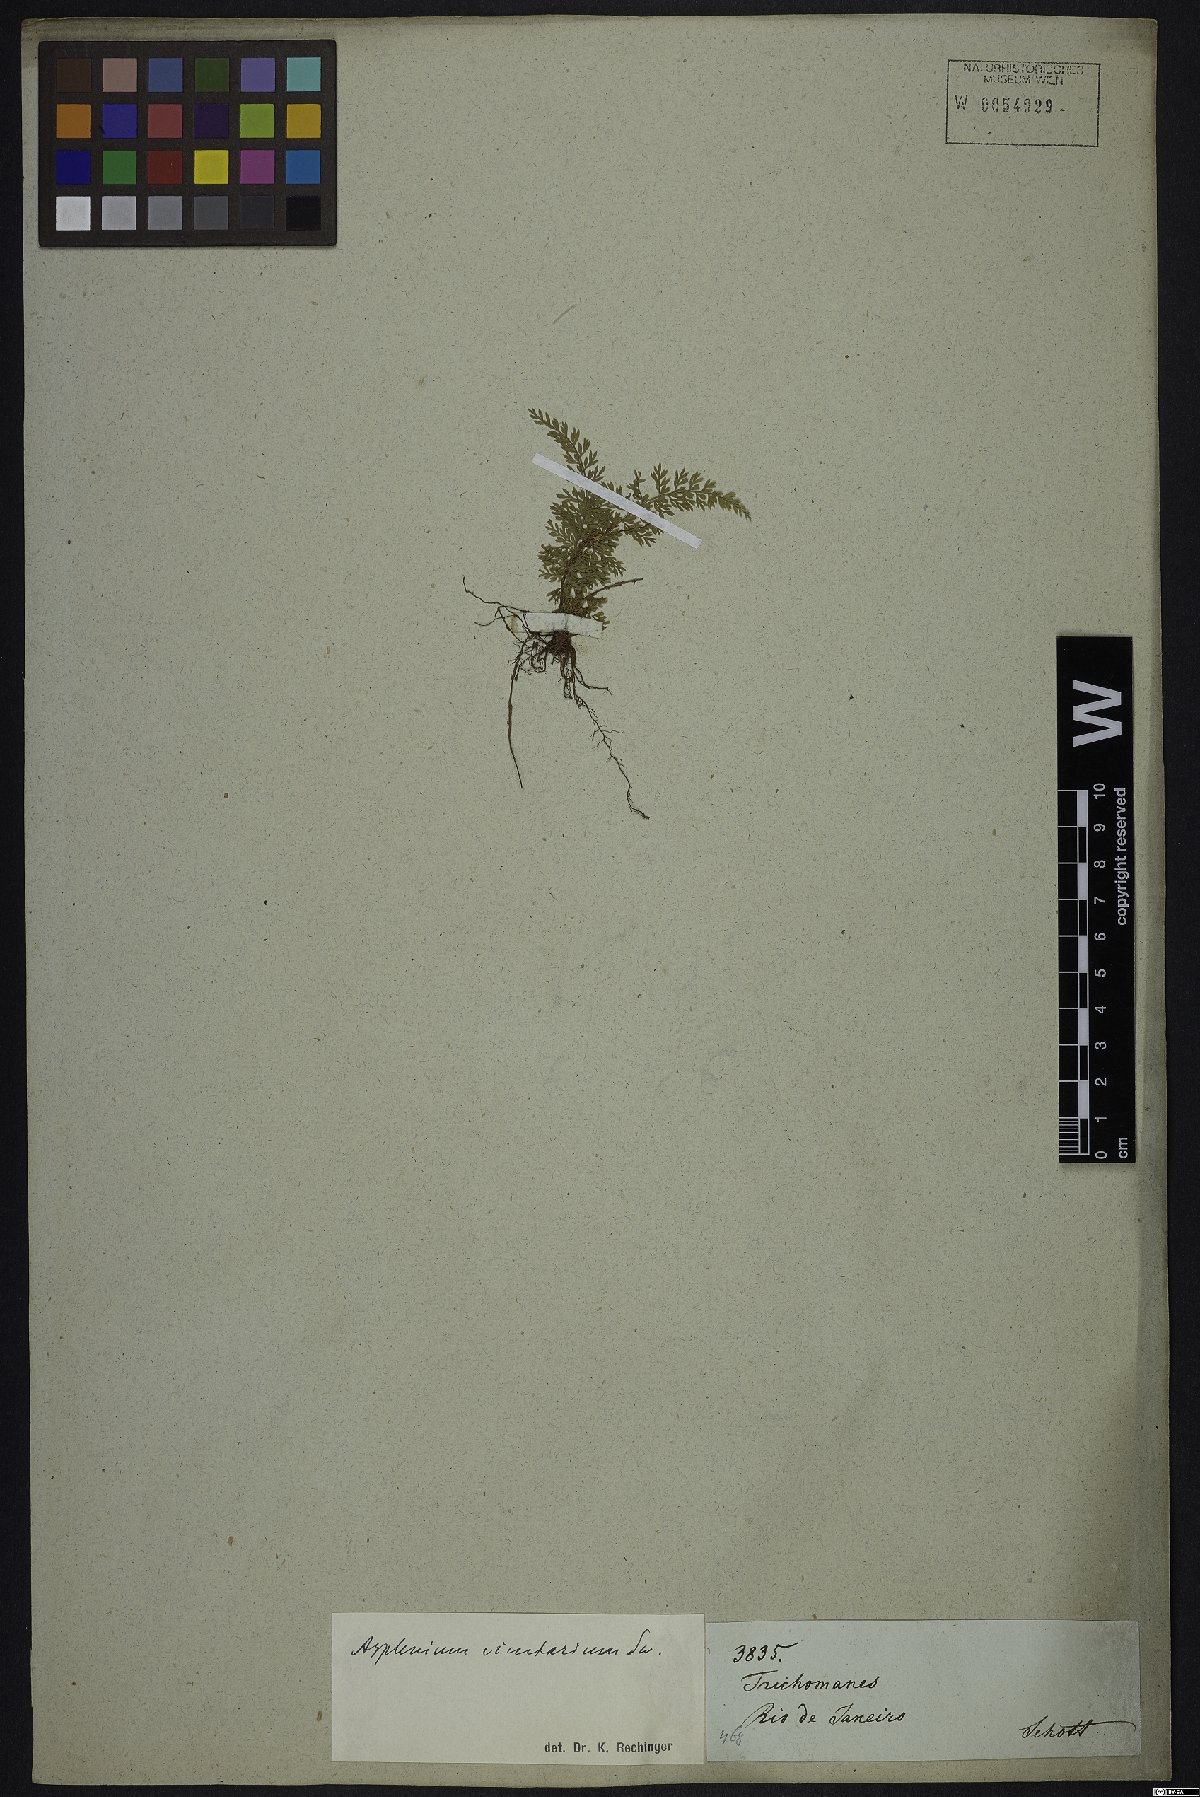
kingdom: Plantae
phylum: Tracheophyta
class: Polypodiopsida
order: Polypodiales
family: Aspleniaceae
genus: Asplenium
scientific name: Asplenium cristatum
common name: Parsley spleenwort
